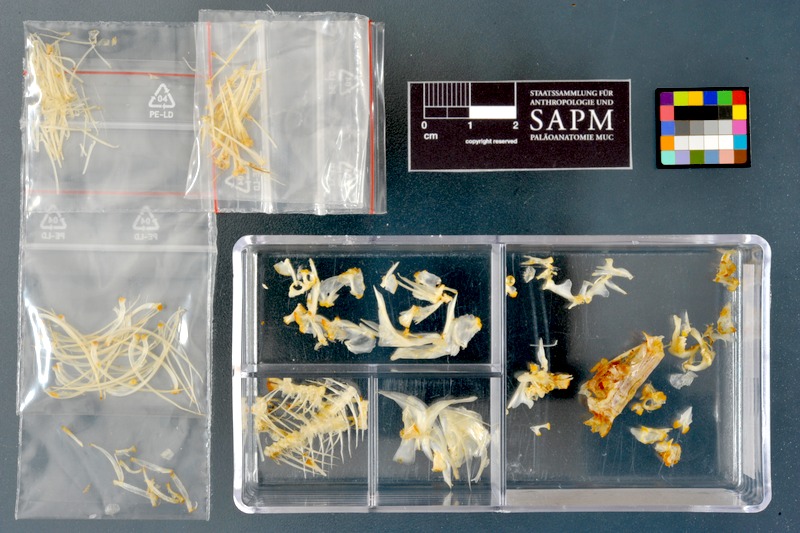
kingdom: Animalia
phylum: Chordata
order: Cypriniformes
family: Cyprinidae
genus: Acanthobrama
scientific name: Acanthobrama marmid
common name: Mesopotamian bream
